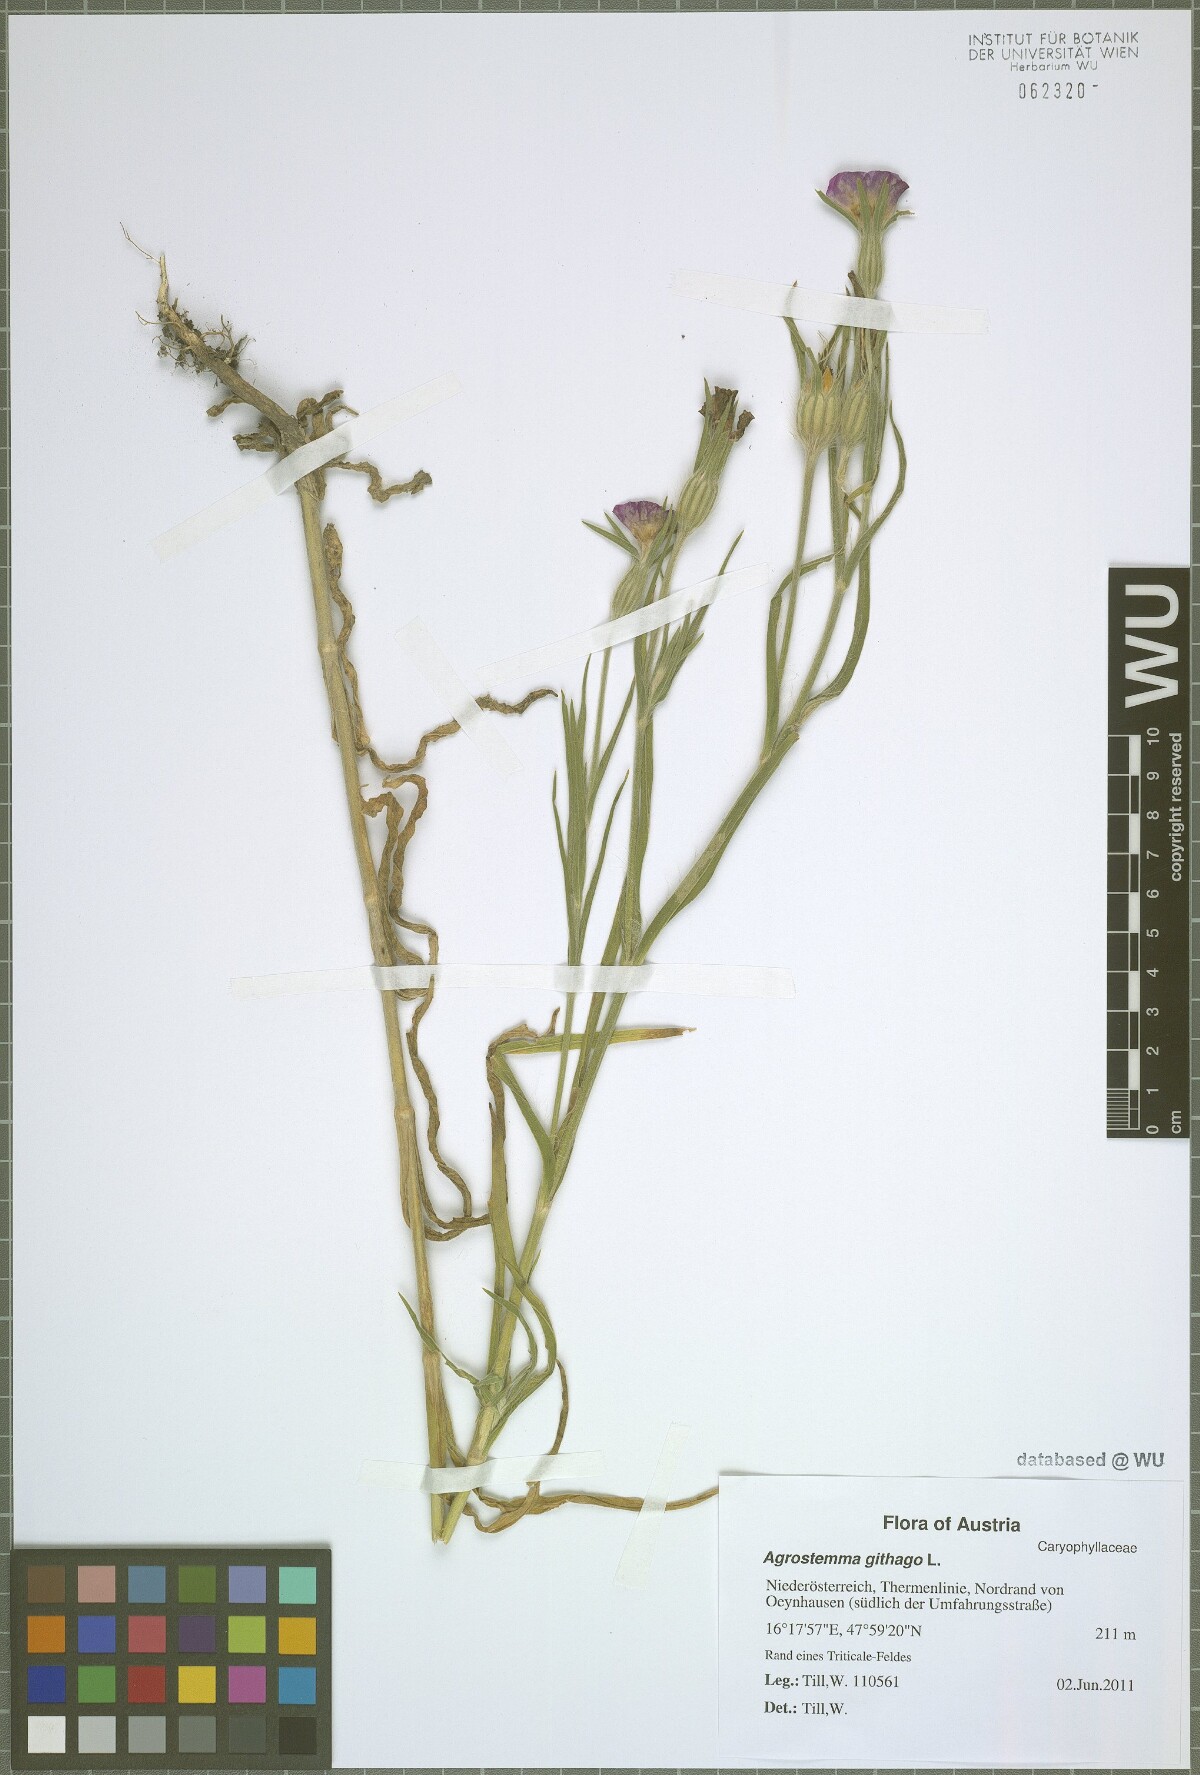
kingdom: Plantae
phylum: Tracheophyta
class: Magnoliopsida
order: Caryophyllales
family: Caryophyllaceae
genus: Agrostemma
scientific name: Agrostemma githago
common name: Common corncockle
